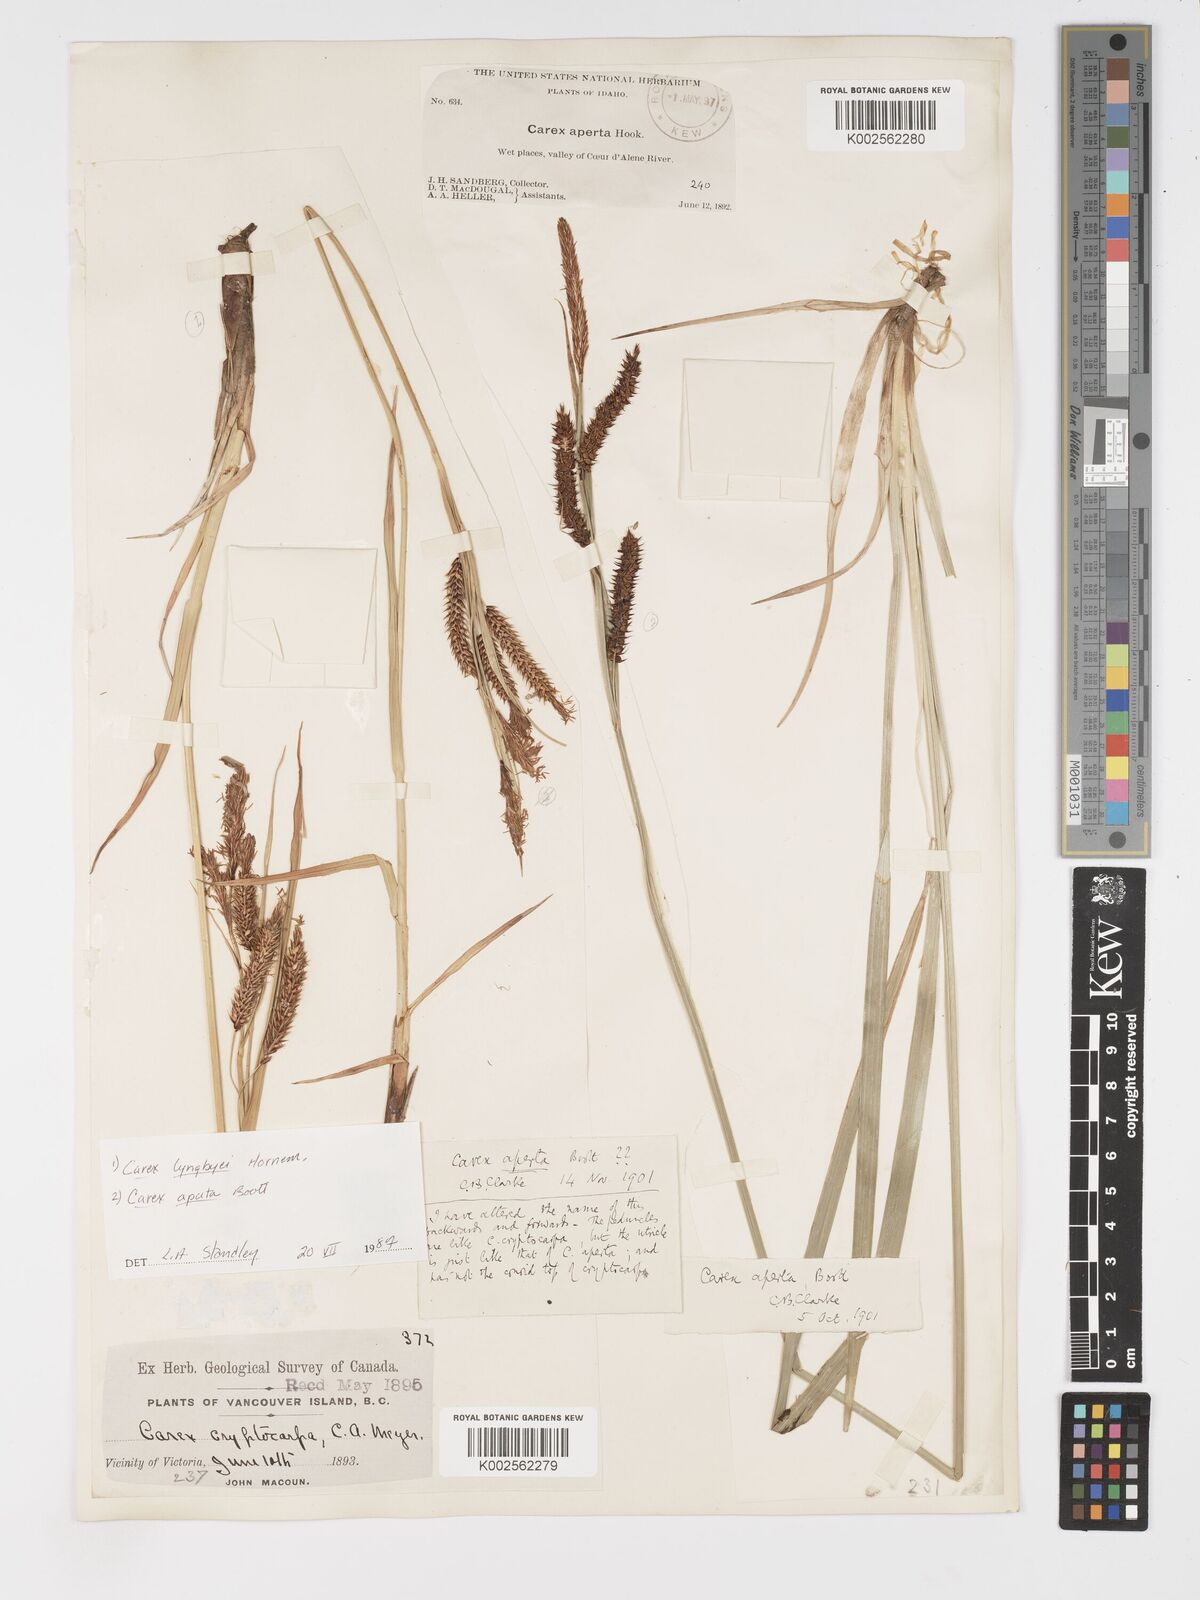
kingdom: Plantae
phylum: Tracheophyta
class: Liliopsida
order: Poales
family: Cyperaceae
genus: Carex
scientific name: Carex aperta
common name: Columbia sedge
